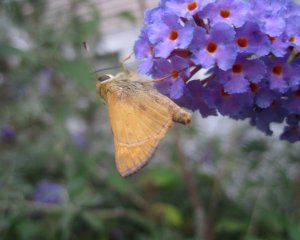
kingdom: Animalia
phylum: Arthropoda
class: Insecta
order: Lepidoptera
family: Hesperiidae
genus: Atalopedes
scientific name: Atalopedes campestris
